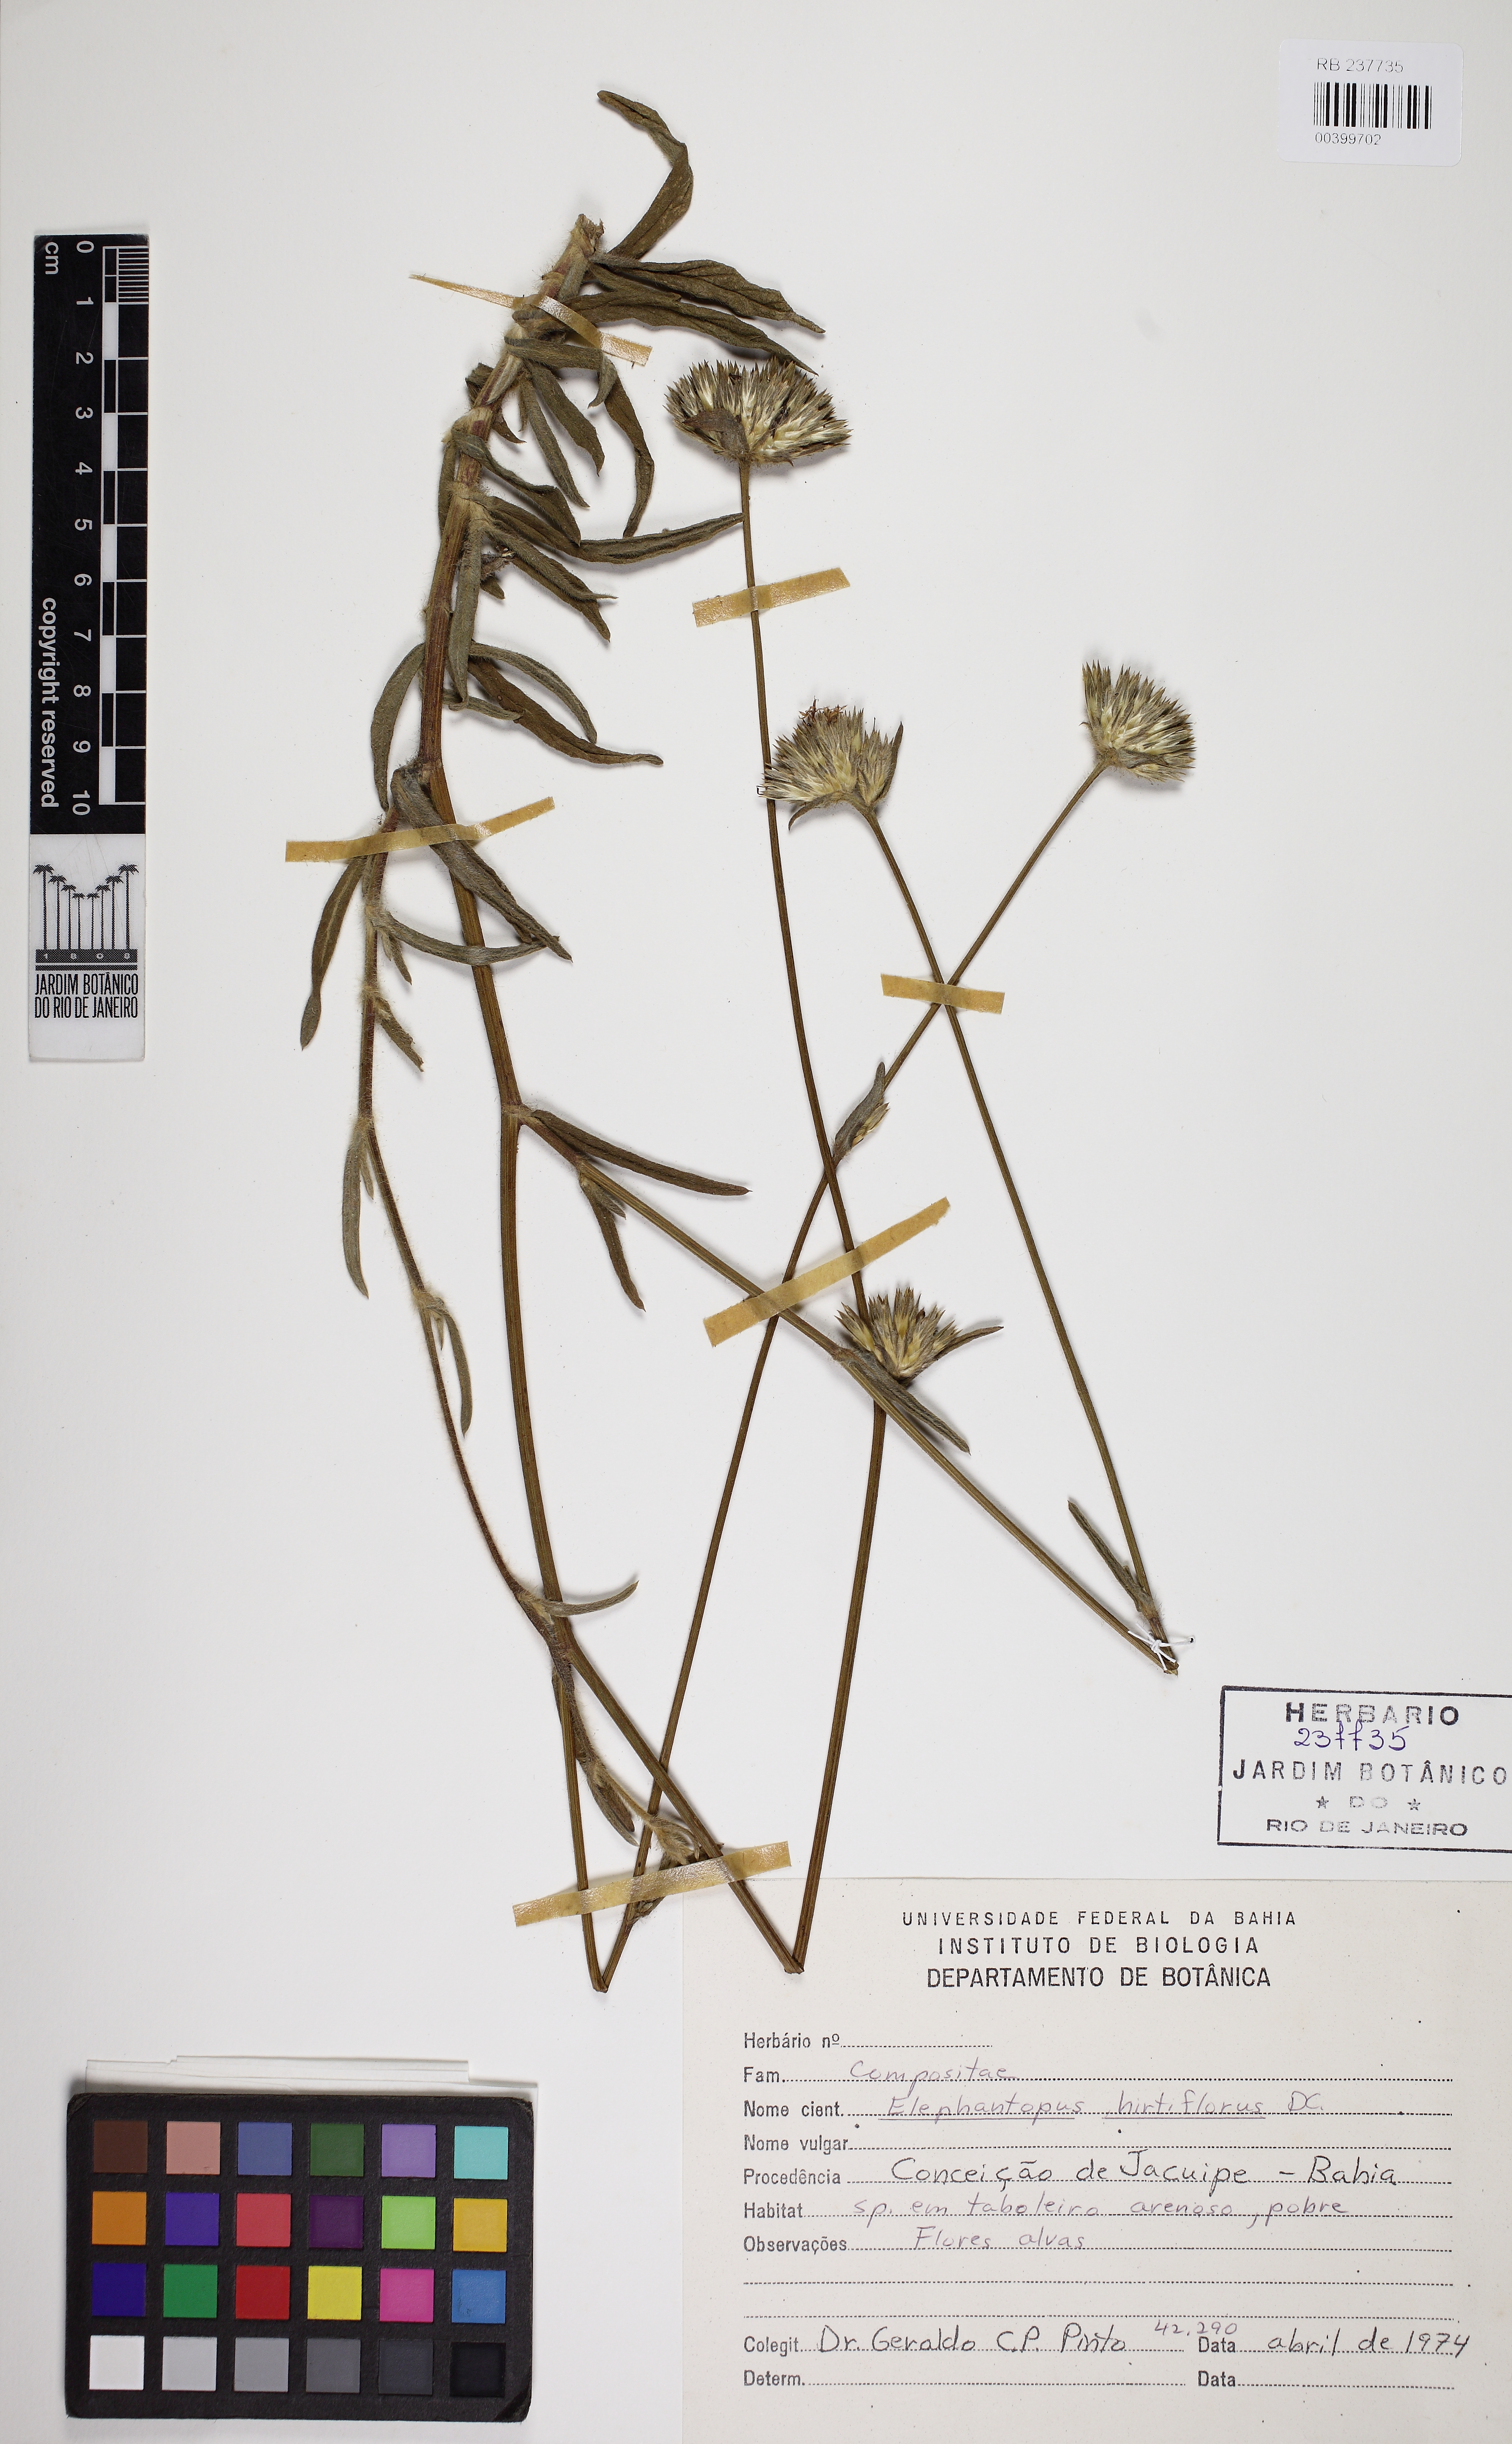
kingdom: Plantae
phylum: Tracheophyta
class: Magnoliopsida
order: Asterales
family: Asteraceae
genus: Elephantopus
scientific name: Elephantopus hirtiflorus
